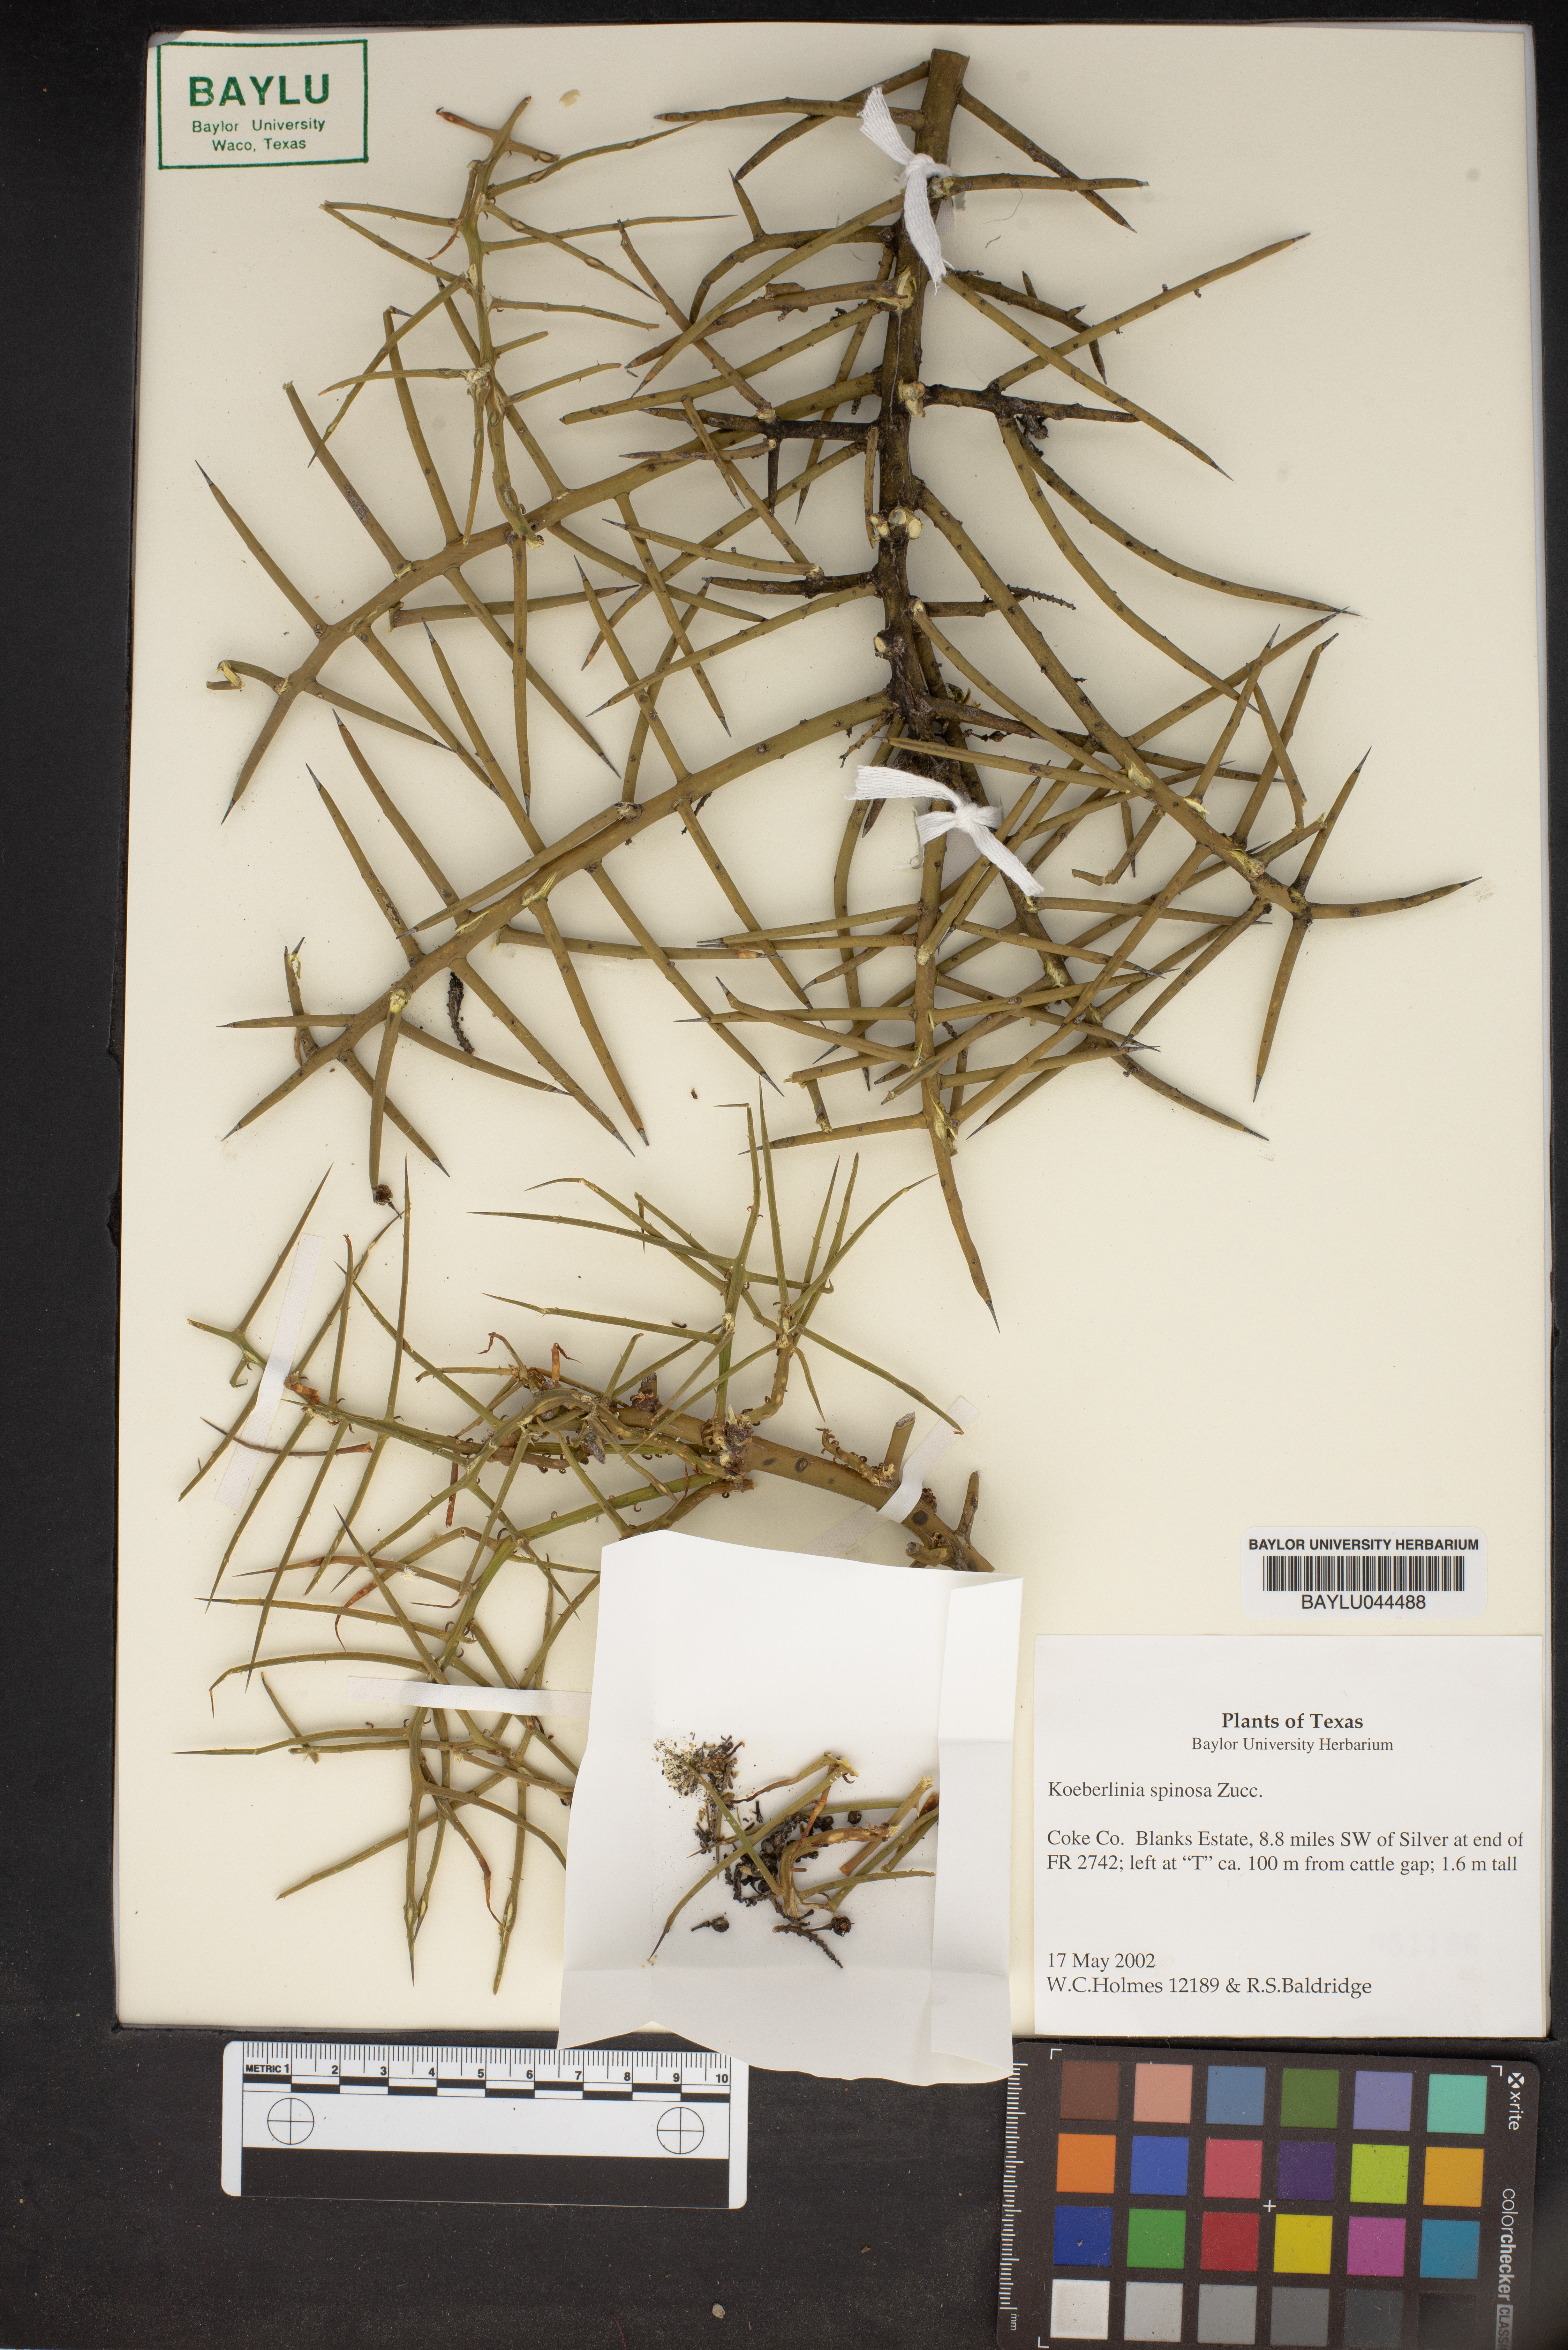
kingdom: Plantae
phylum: Tracheophyta
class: Magnoliopsida
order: Brassicales
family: Koeberliniaceae
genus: Koeberlinia
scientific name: Koeberlinia spinosa
